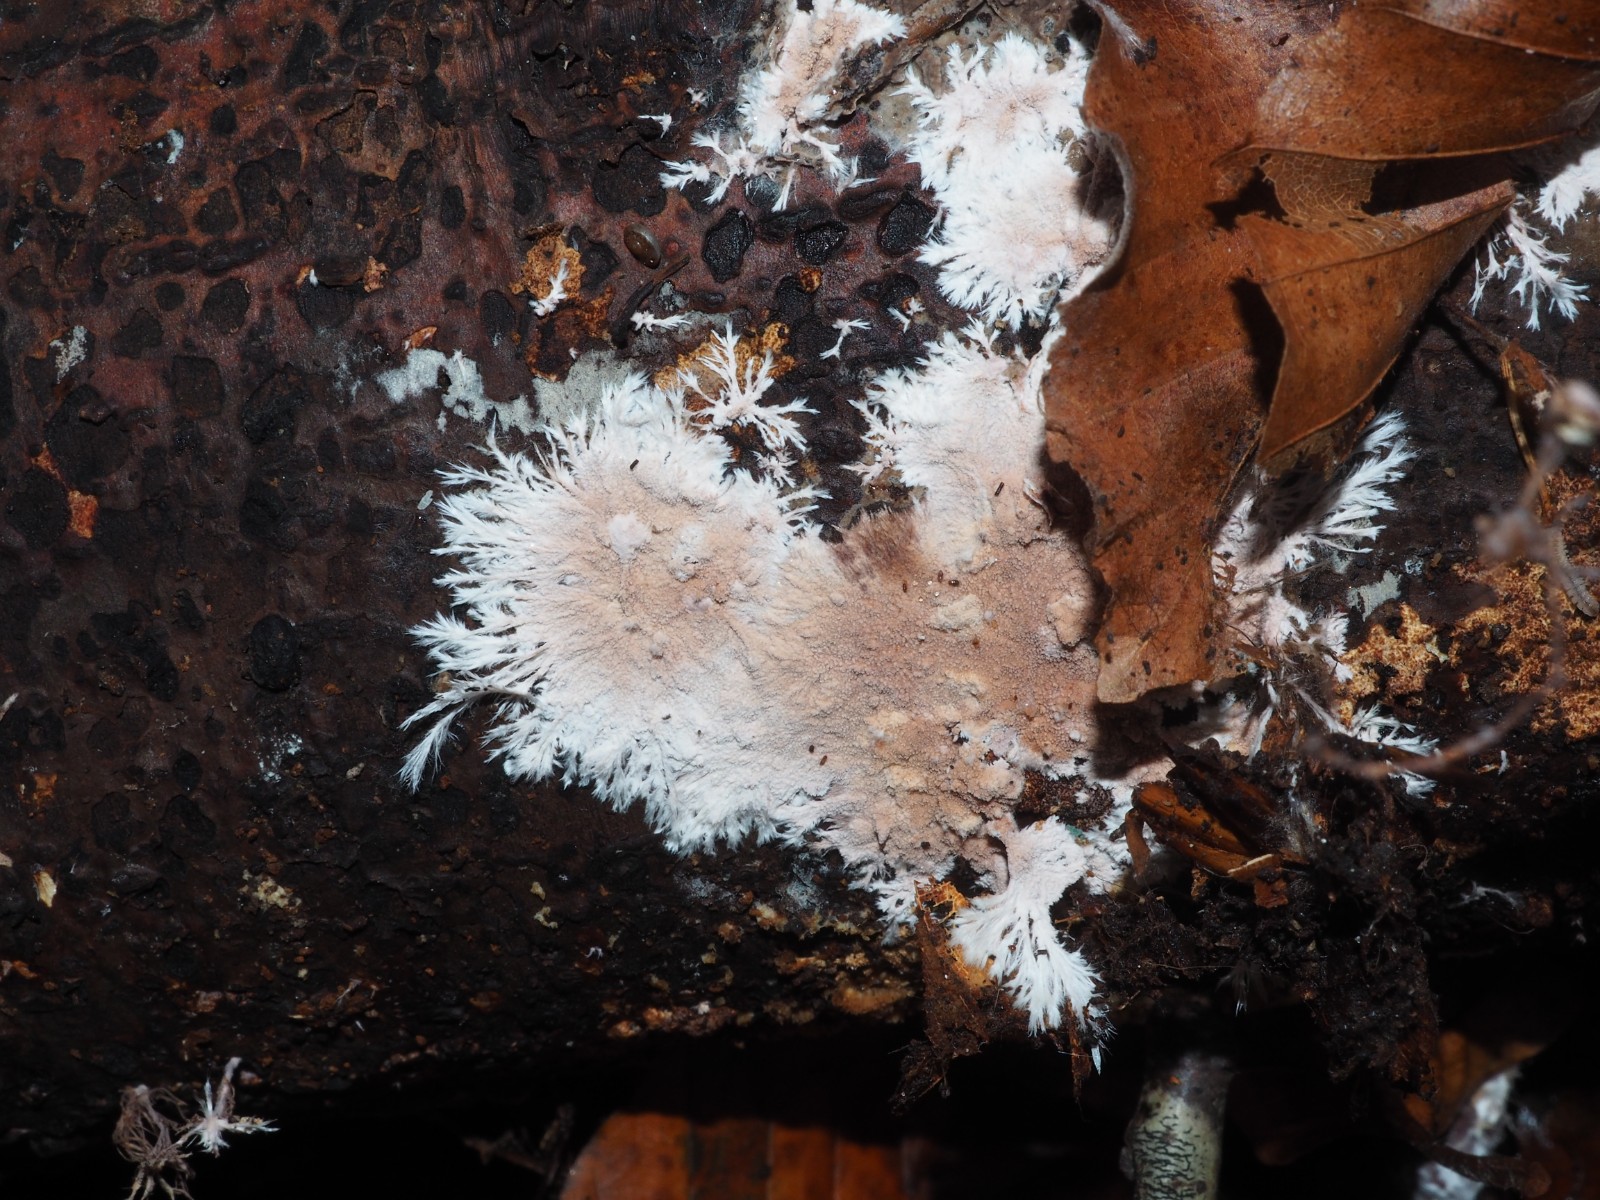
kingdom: Fungi
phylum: Basidiomycota
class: Agaricomycetes
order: Polyporales
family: Steccherinaceae
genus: Steccherinum
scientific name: Steccherinum fimbriatum
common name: trådet skønpig
